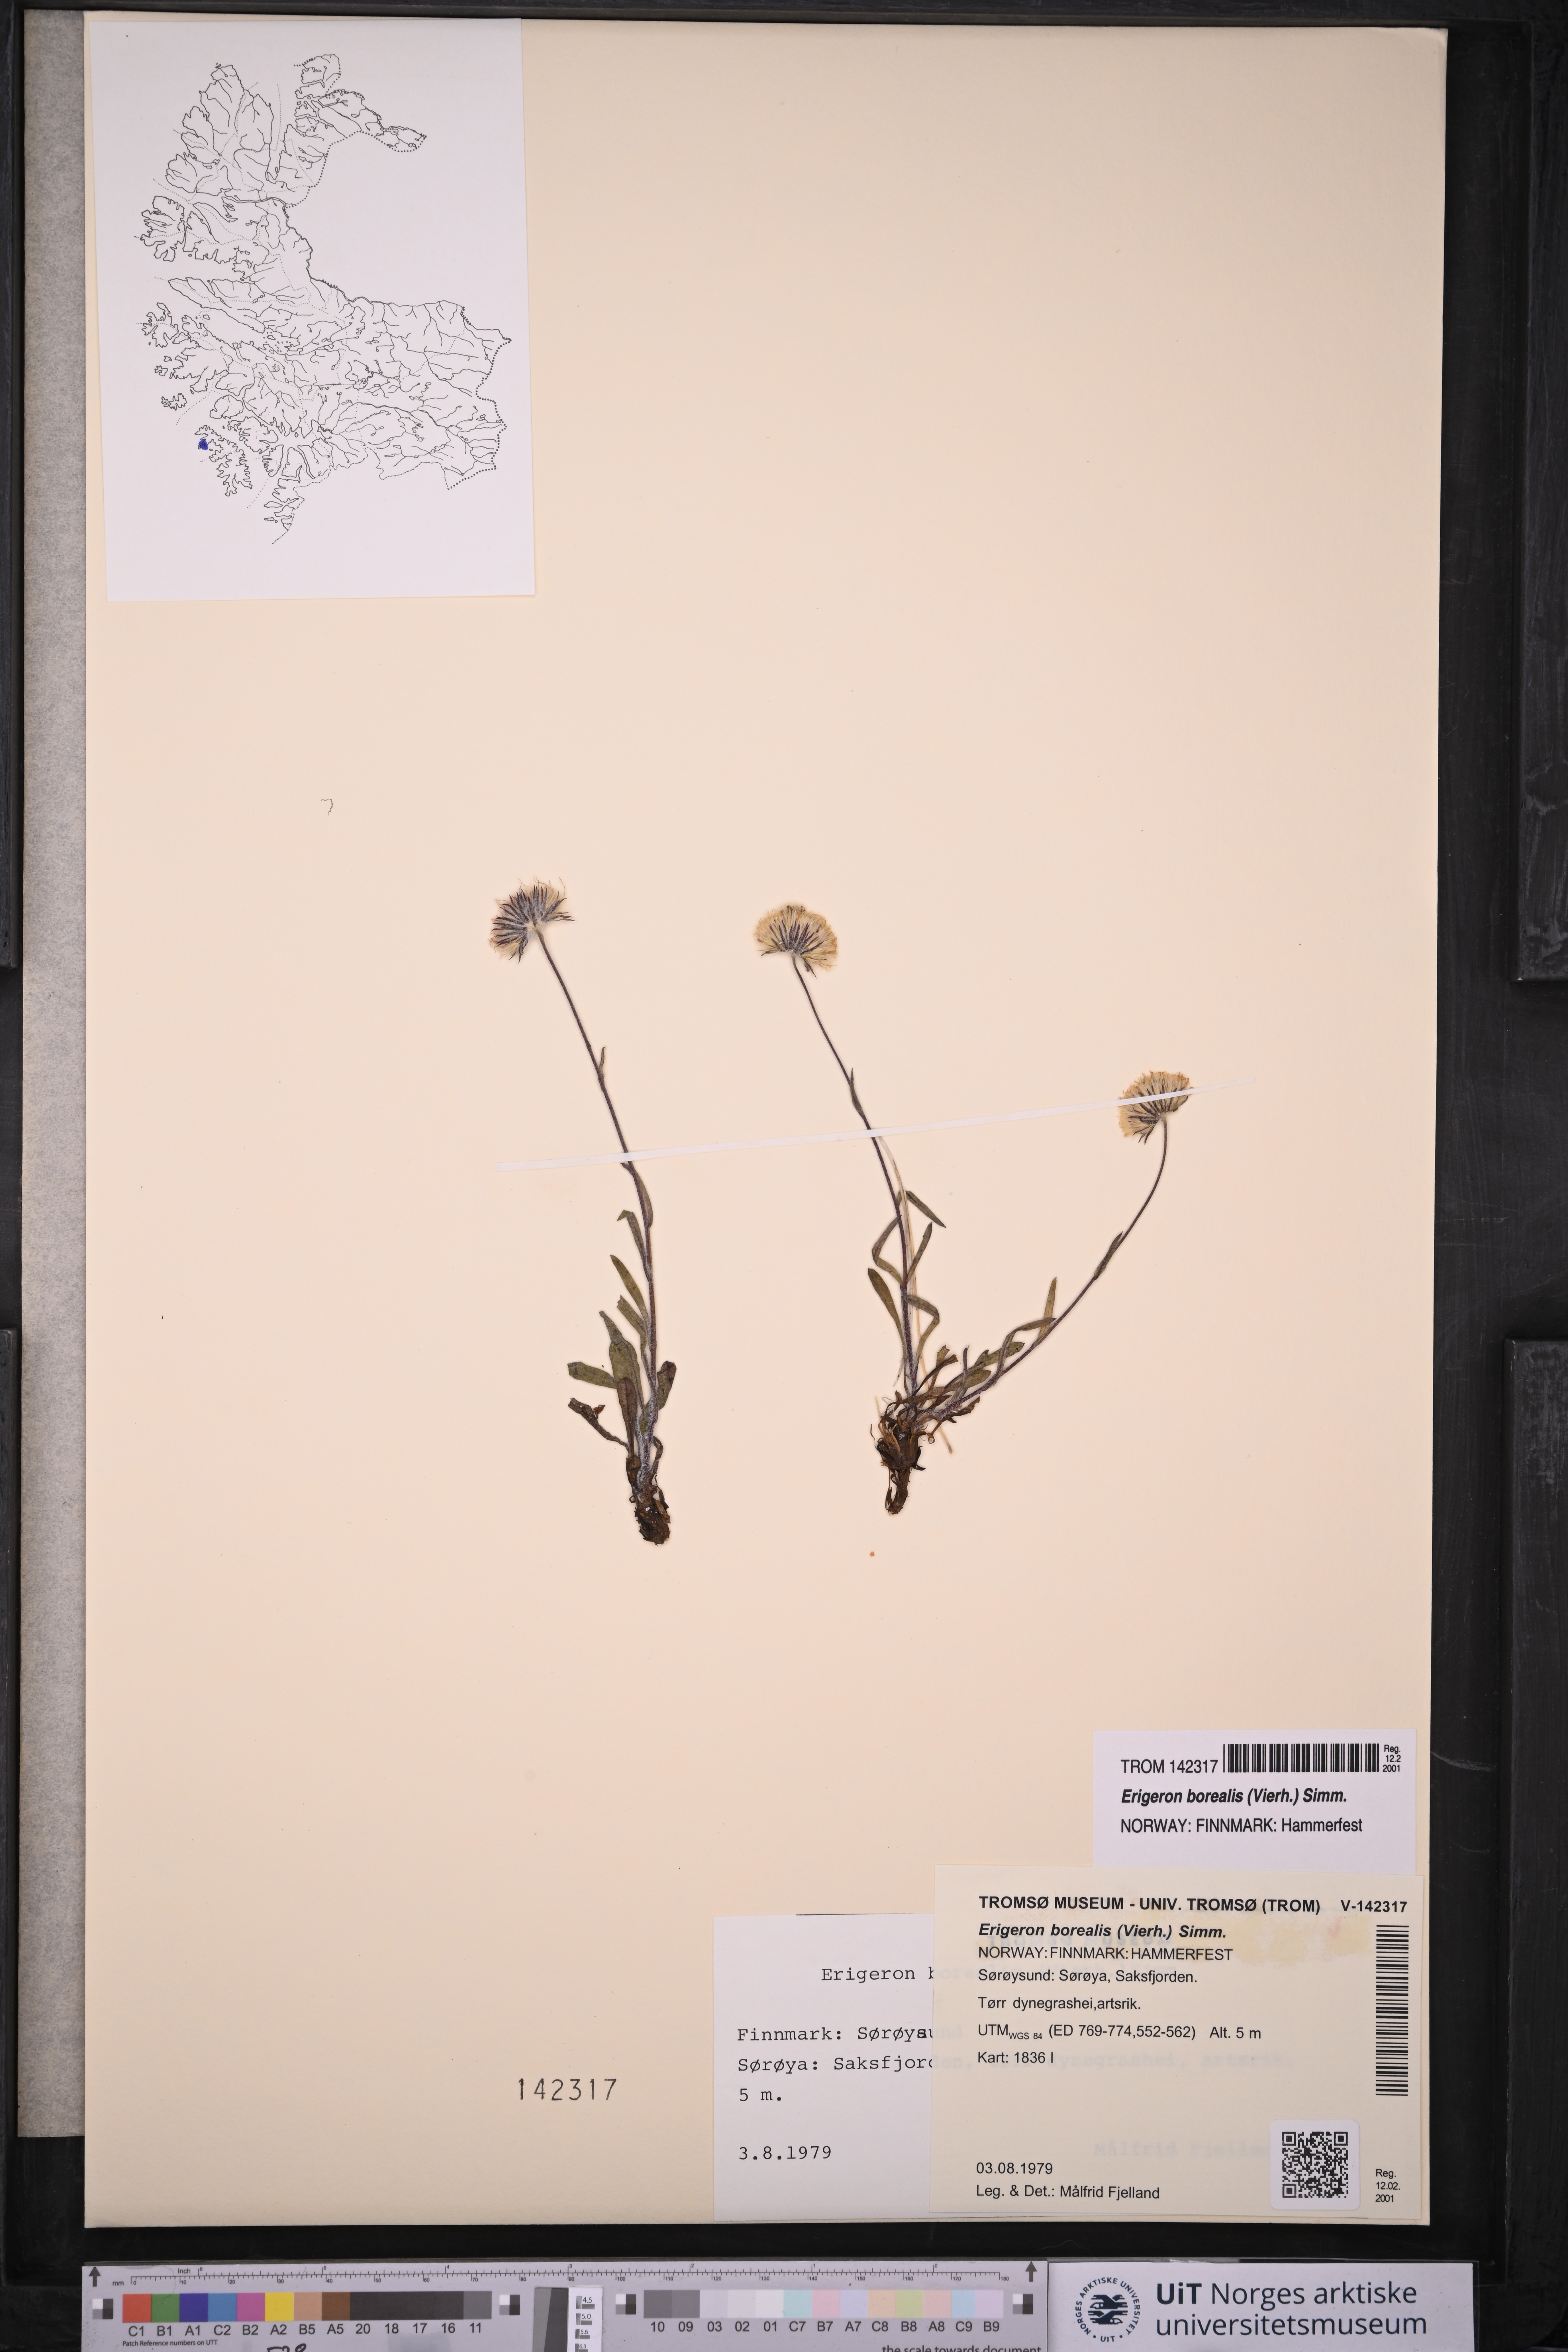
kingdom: Plantae
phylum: Tracheophyta
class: Magnoliopsida
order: Asterales
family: Asteraceae
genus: Erigeron
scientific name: Erigeron borealis
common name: Alpine fleabane
